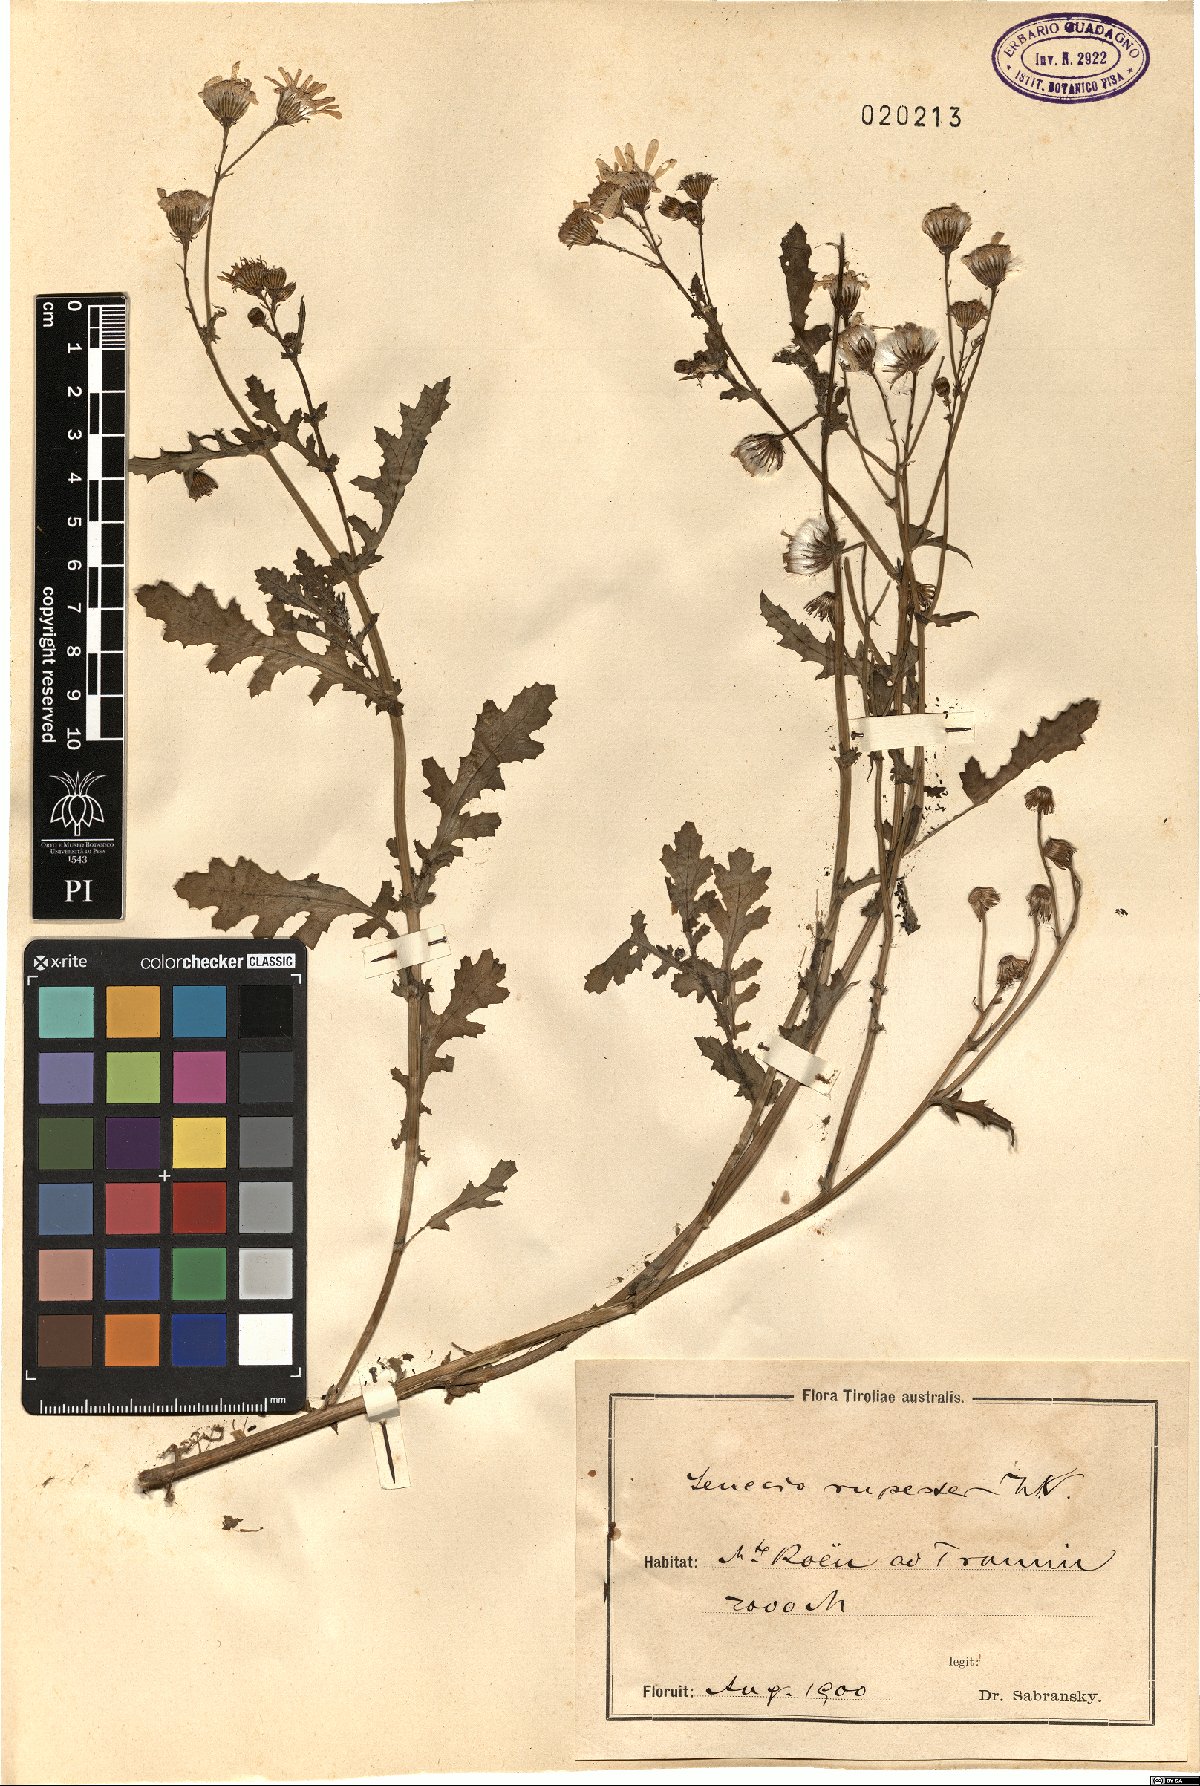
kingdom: Plantae
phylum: Tracheophyta
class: Magnoliopsida
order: Asterales
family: Asteraceae
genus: Senecio
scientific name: Senecio rupestris
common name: Rock ragwort
